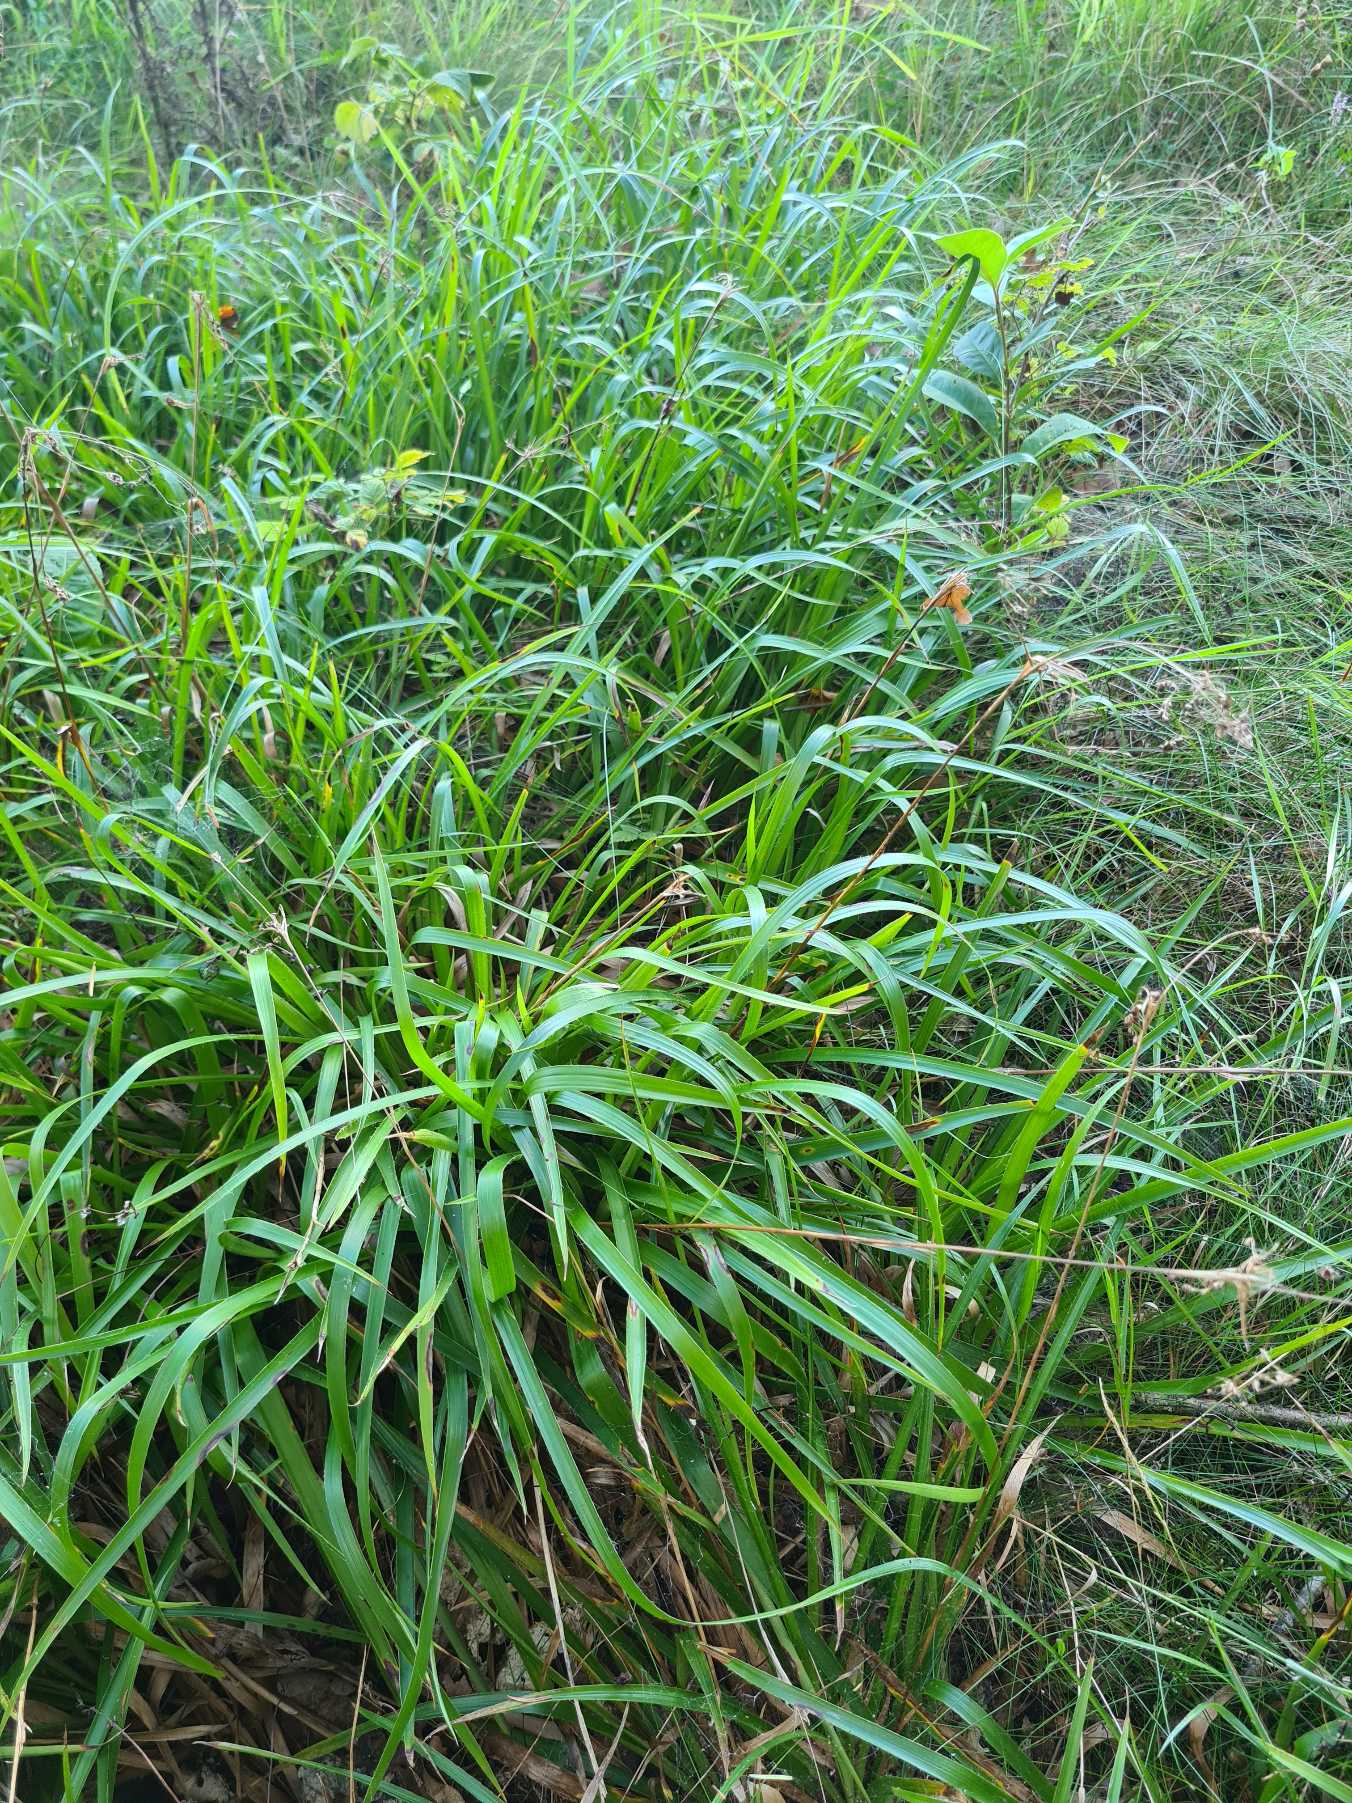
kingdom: Plantae
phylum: Tracheophyta
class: Liliopsida
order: Poales
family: Juncaceae
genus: Luzula
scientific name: Luzula sylvatica
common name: Stor frytle
